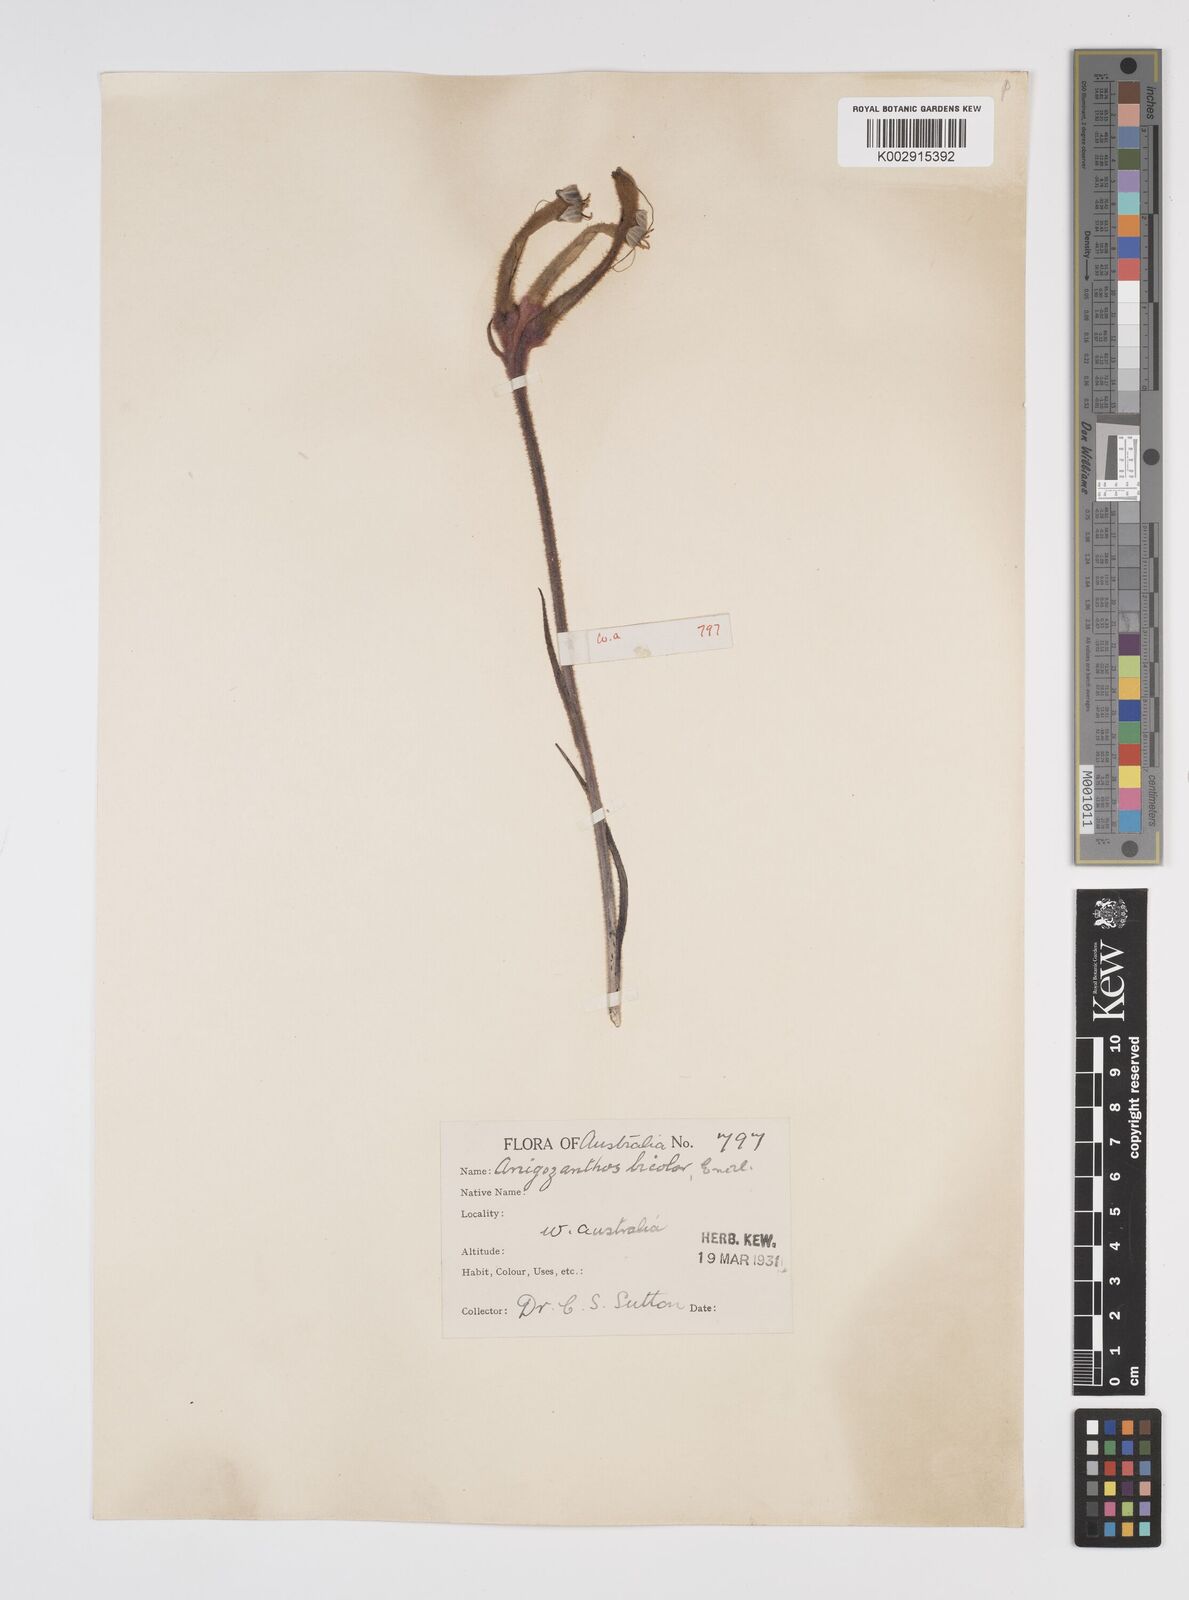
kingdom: Plantae
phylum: Tracheophyta
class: Liliopsida
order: Commelinales
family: Haemodoraceae
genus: Anigozanthos
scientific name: Anigozanthos bicolor
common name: Little kangaroo-paw
